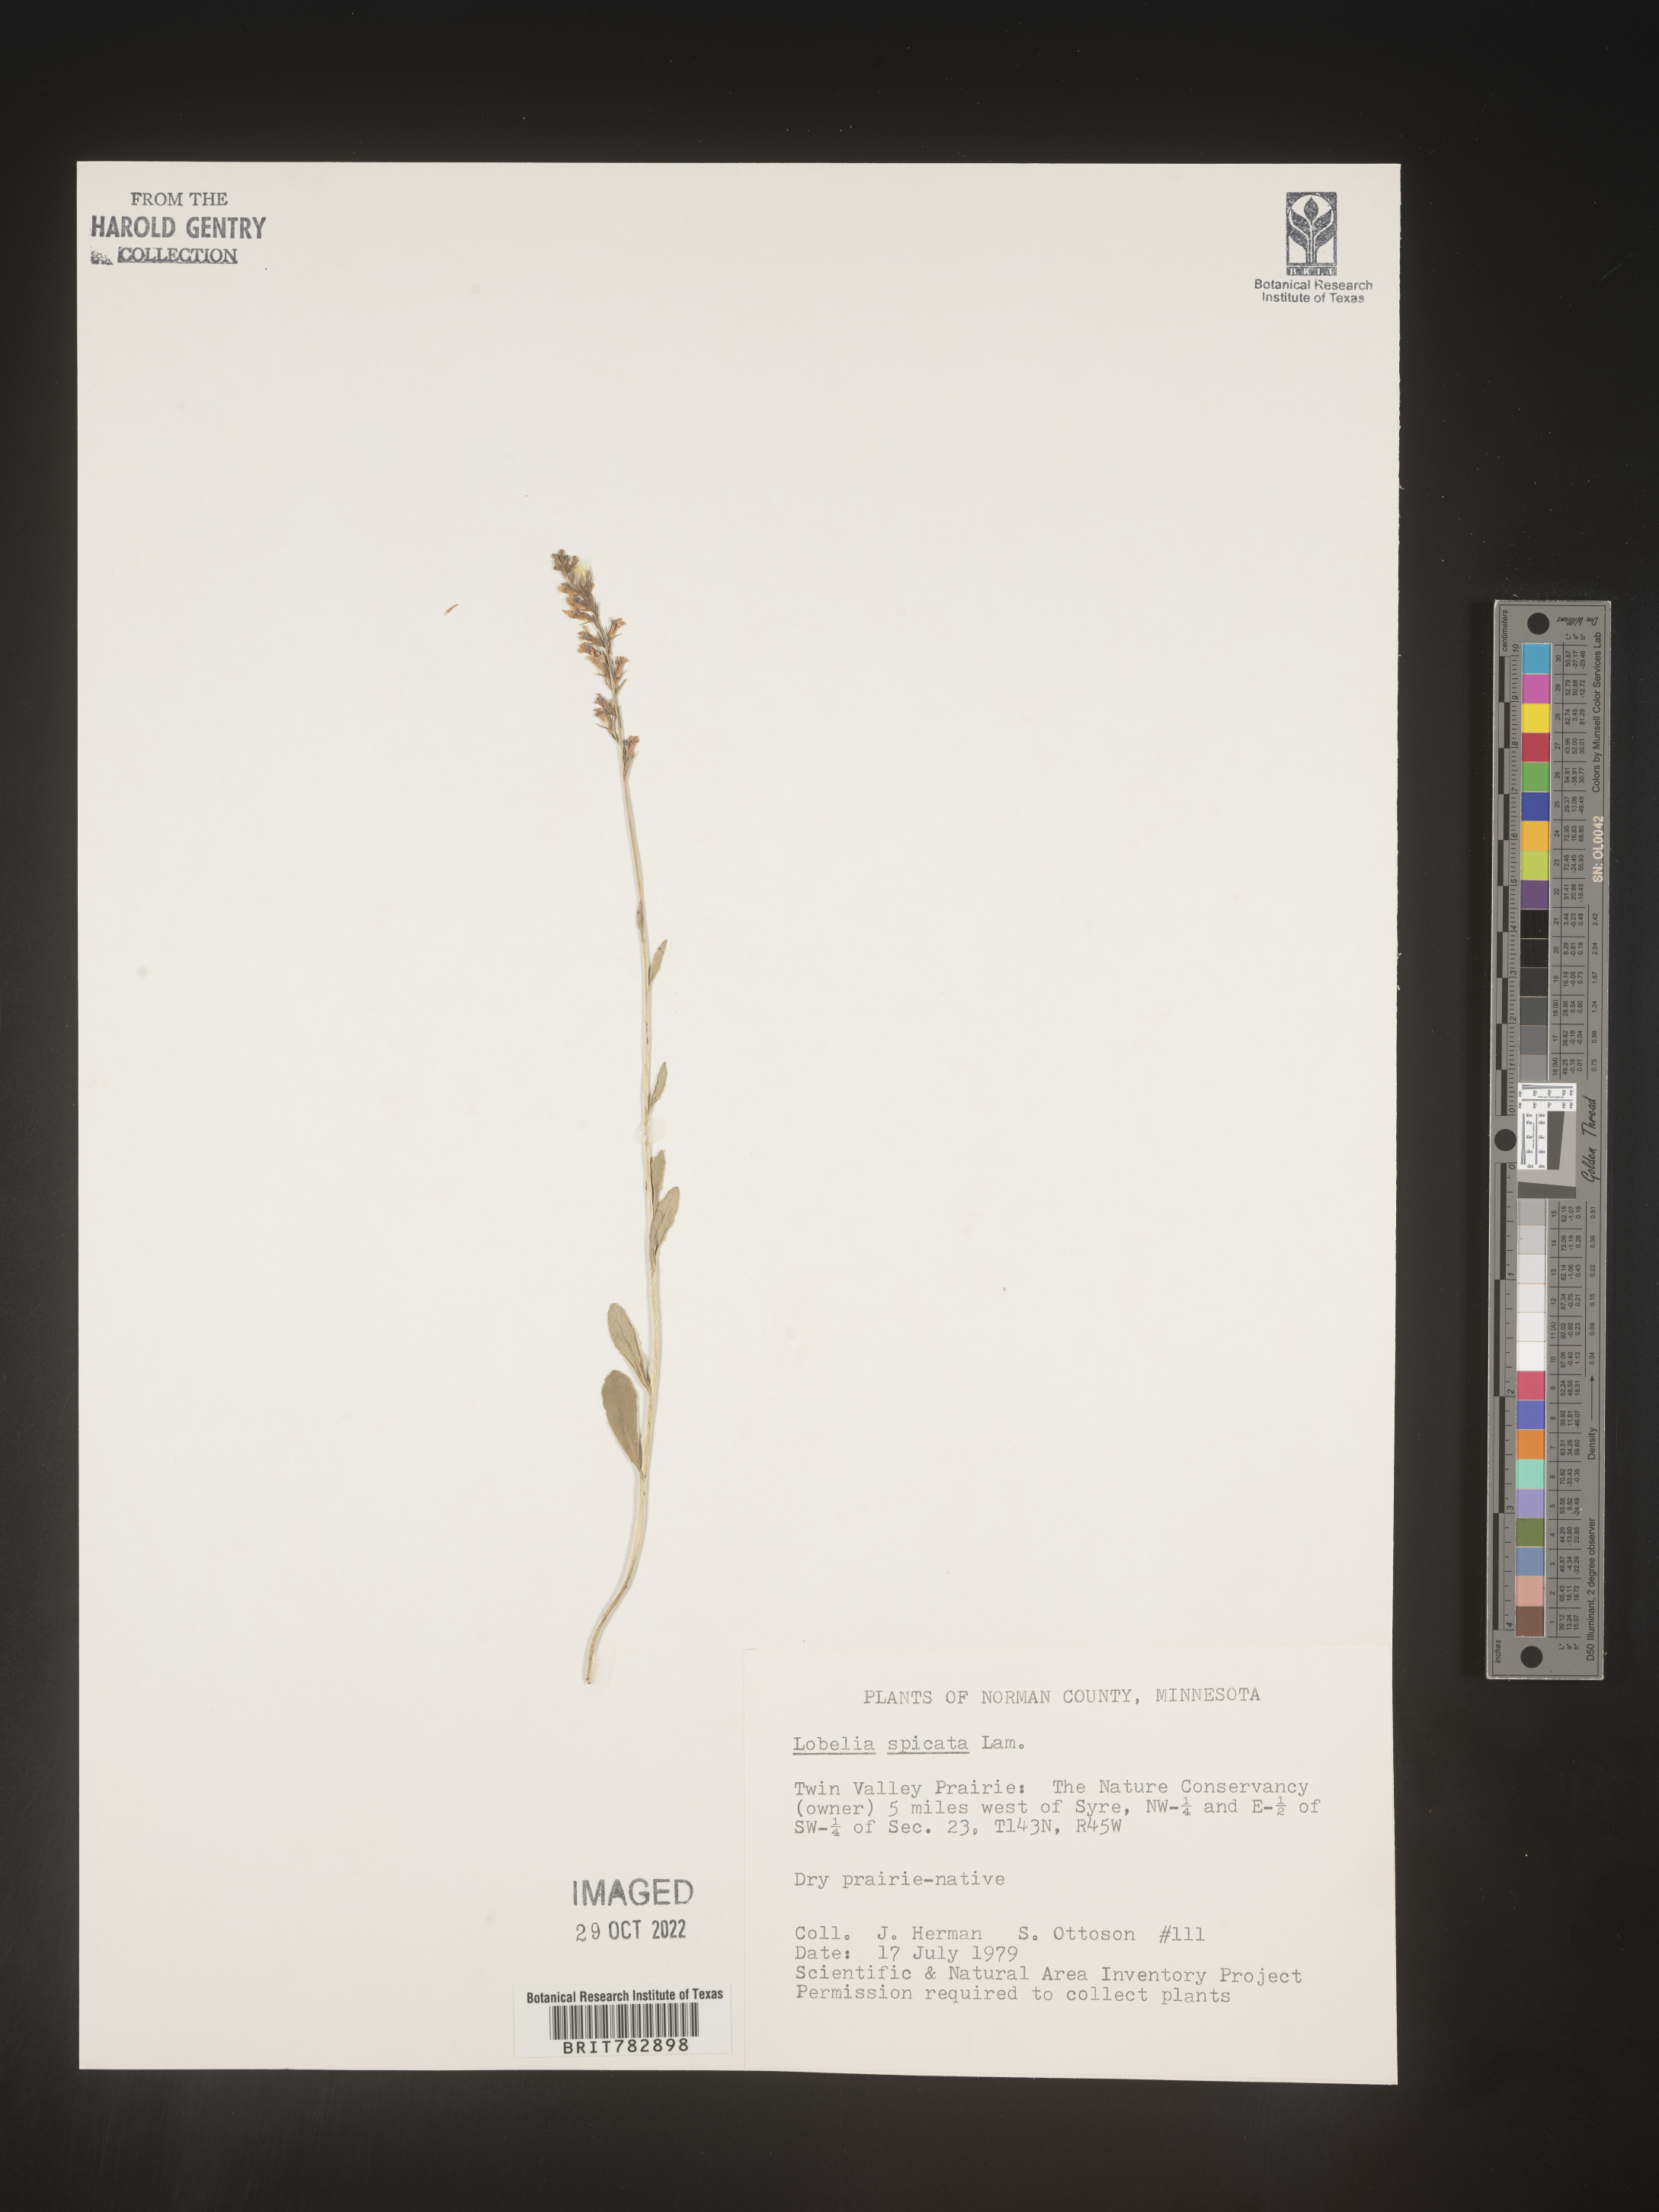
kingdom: Plantae
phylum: Tracheophyta
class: Magnoliopsida
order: Asterales
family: Campanulaceae
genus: Lobelia
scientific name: Lobelia spicata
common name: Pale-spike lobelia
